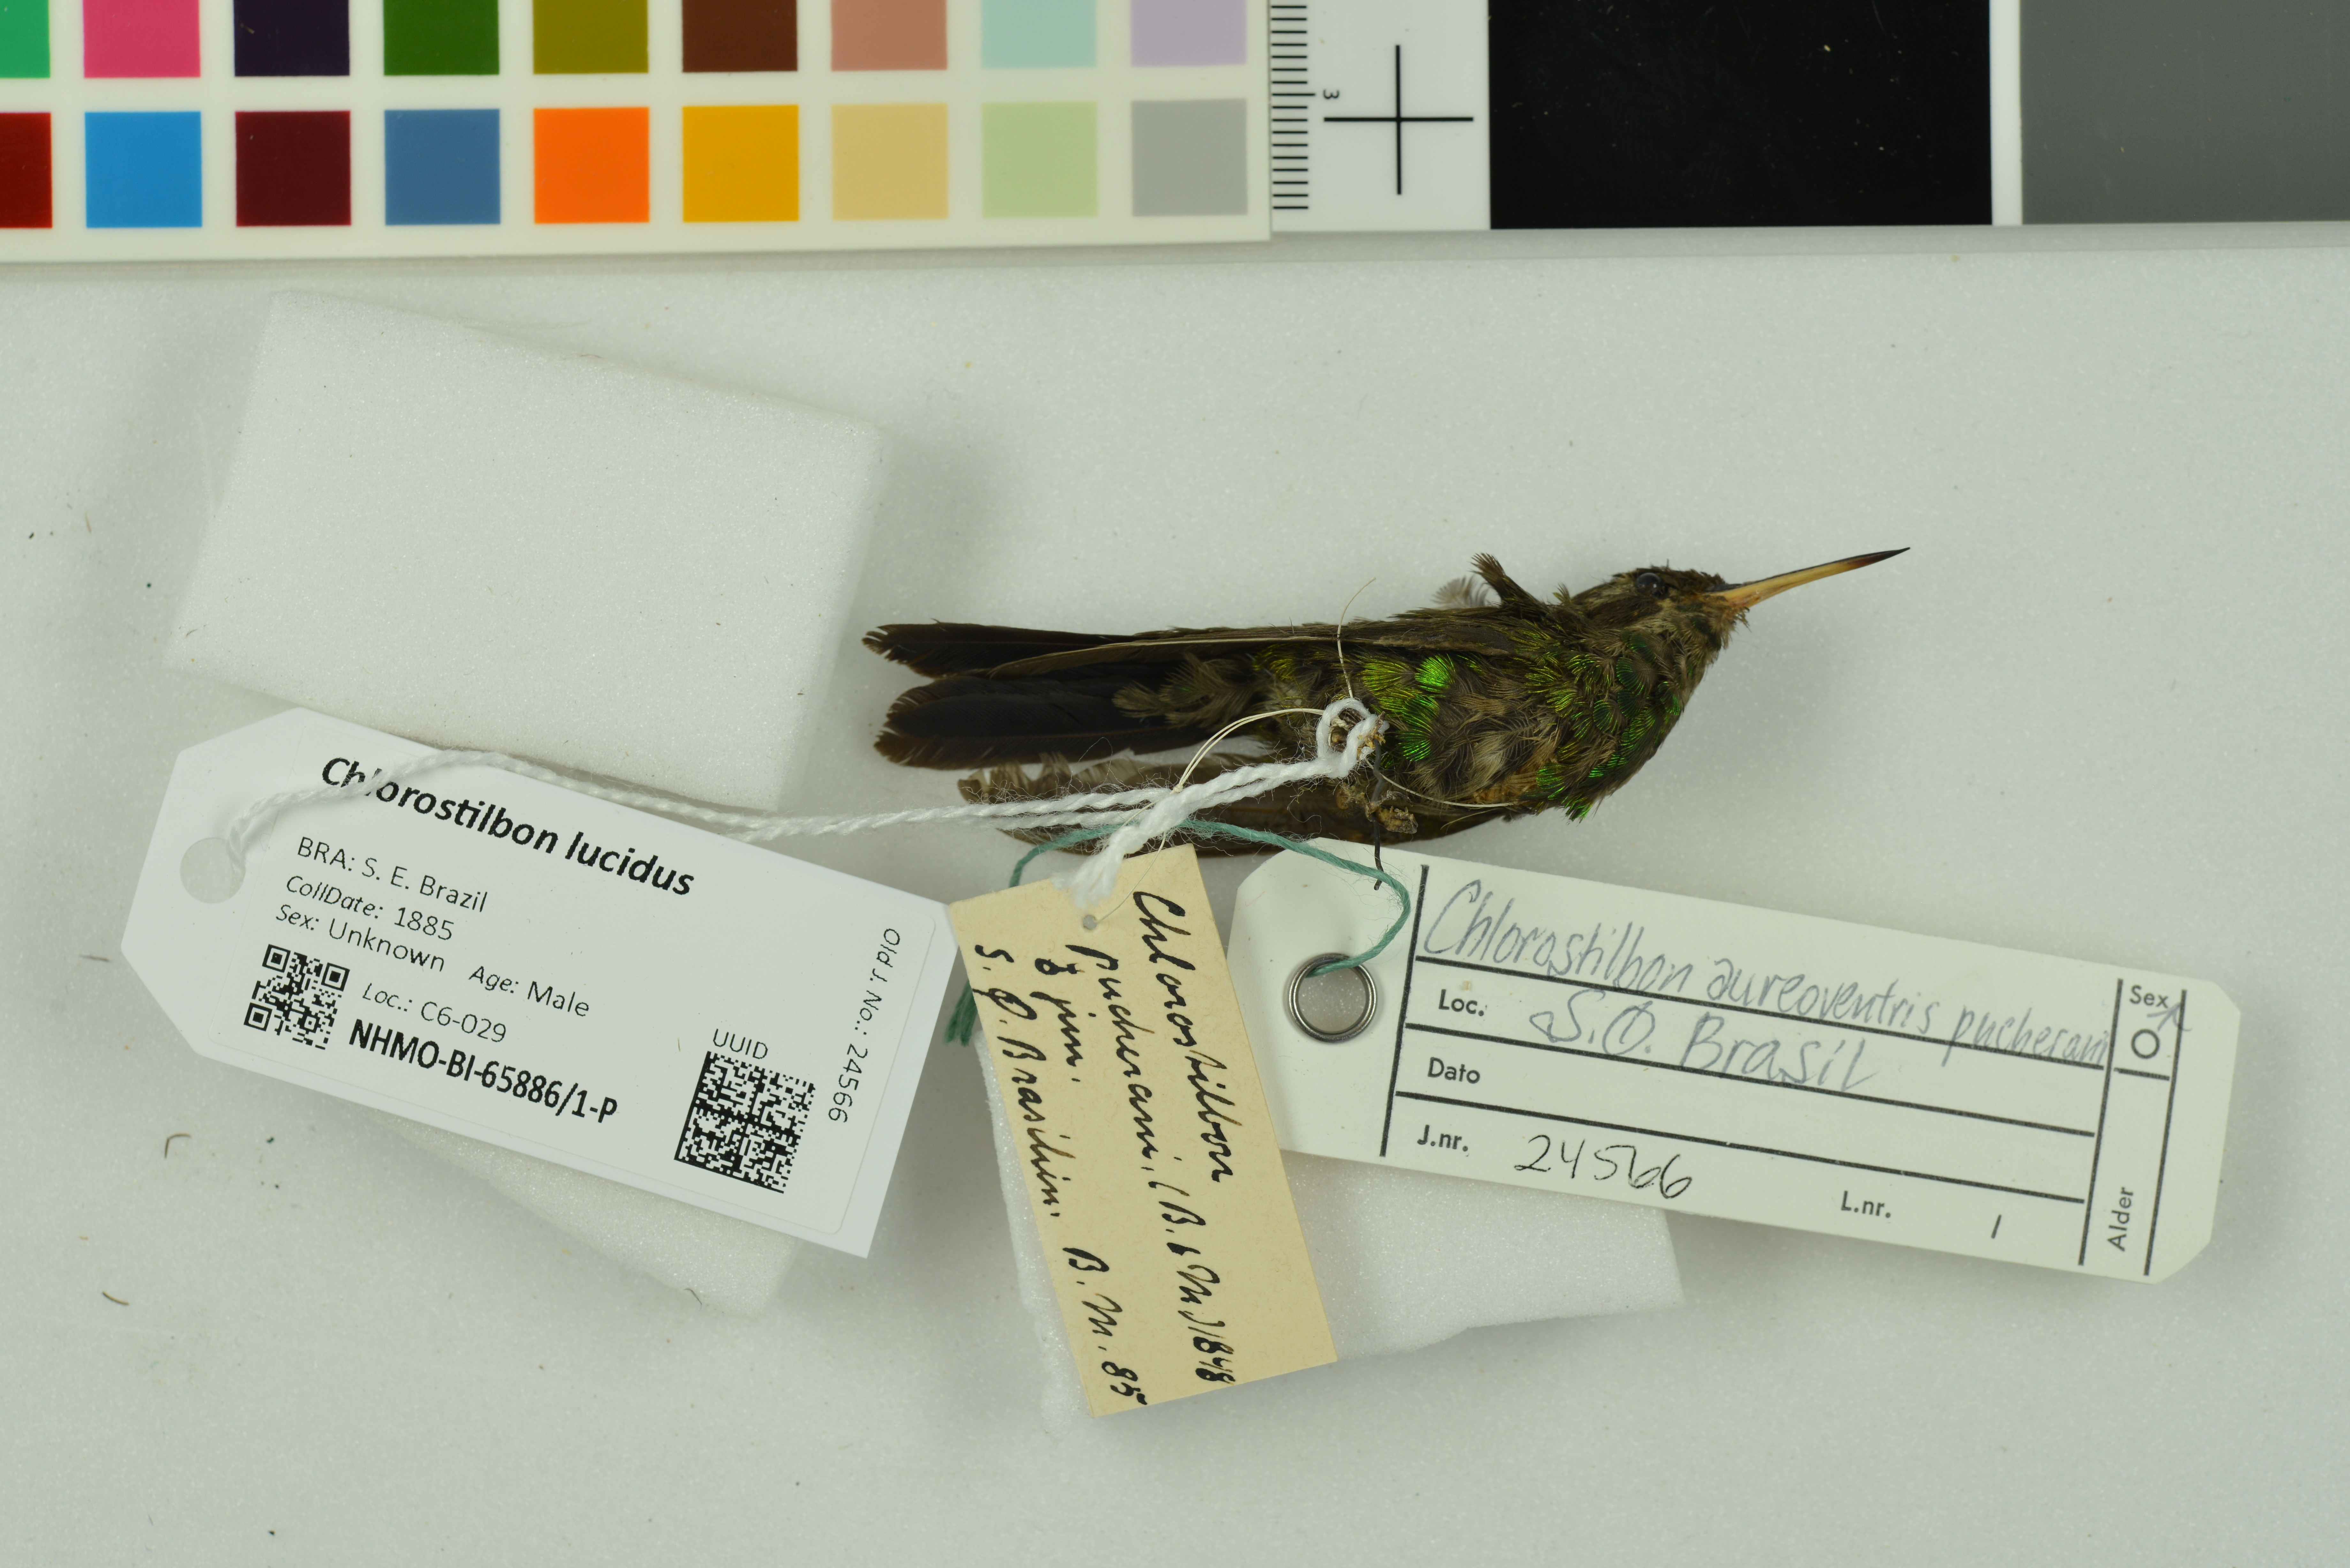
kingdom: Animalia
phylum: Chordata
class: Aves
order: Apodiformes
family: Trochilidae
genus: Chlorostilbon
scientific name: Chlorostilbon lucidus
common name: Glittering-bellied emerald
